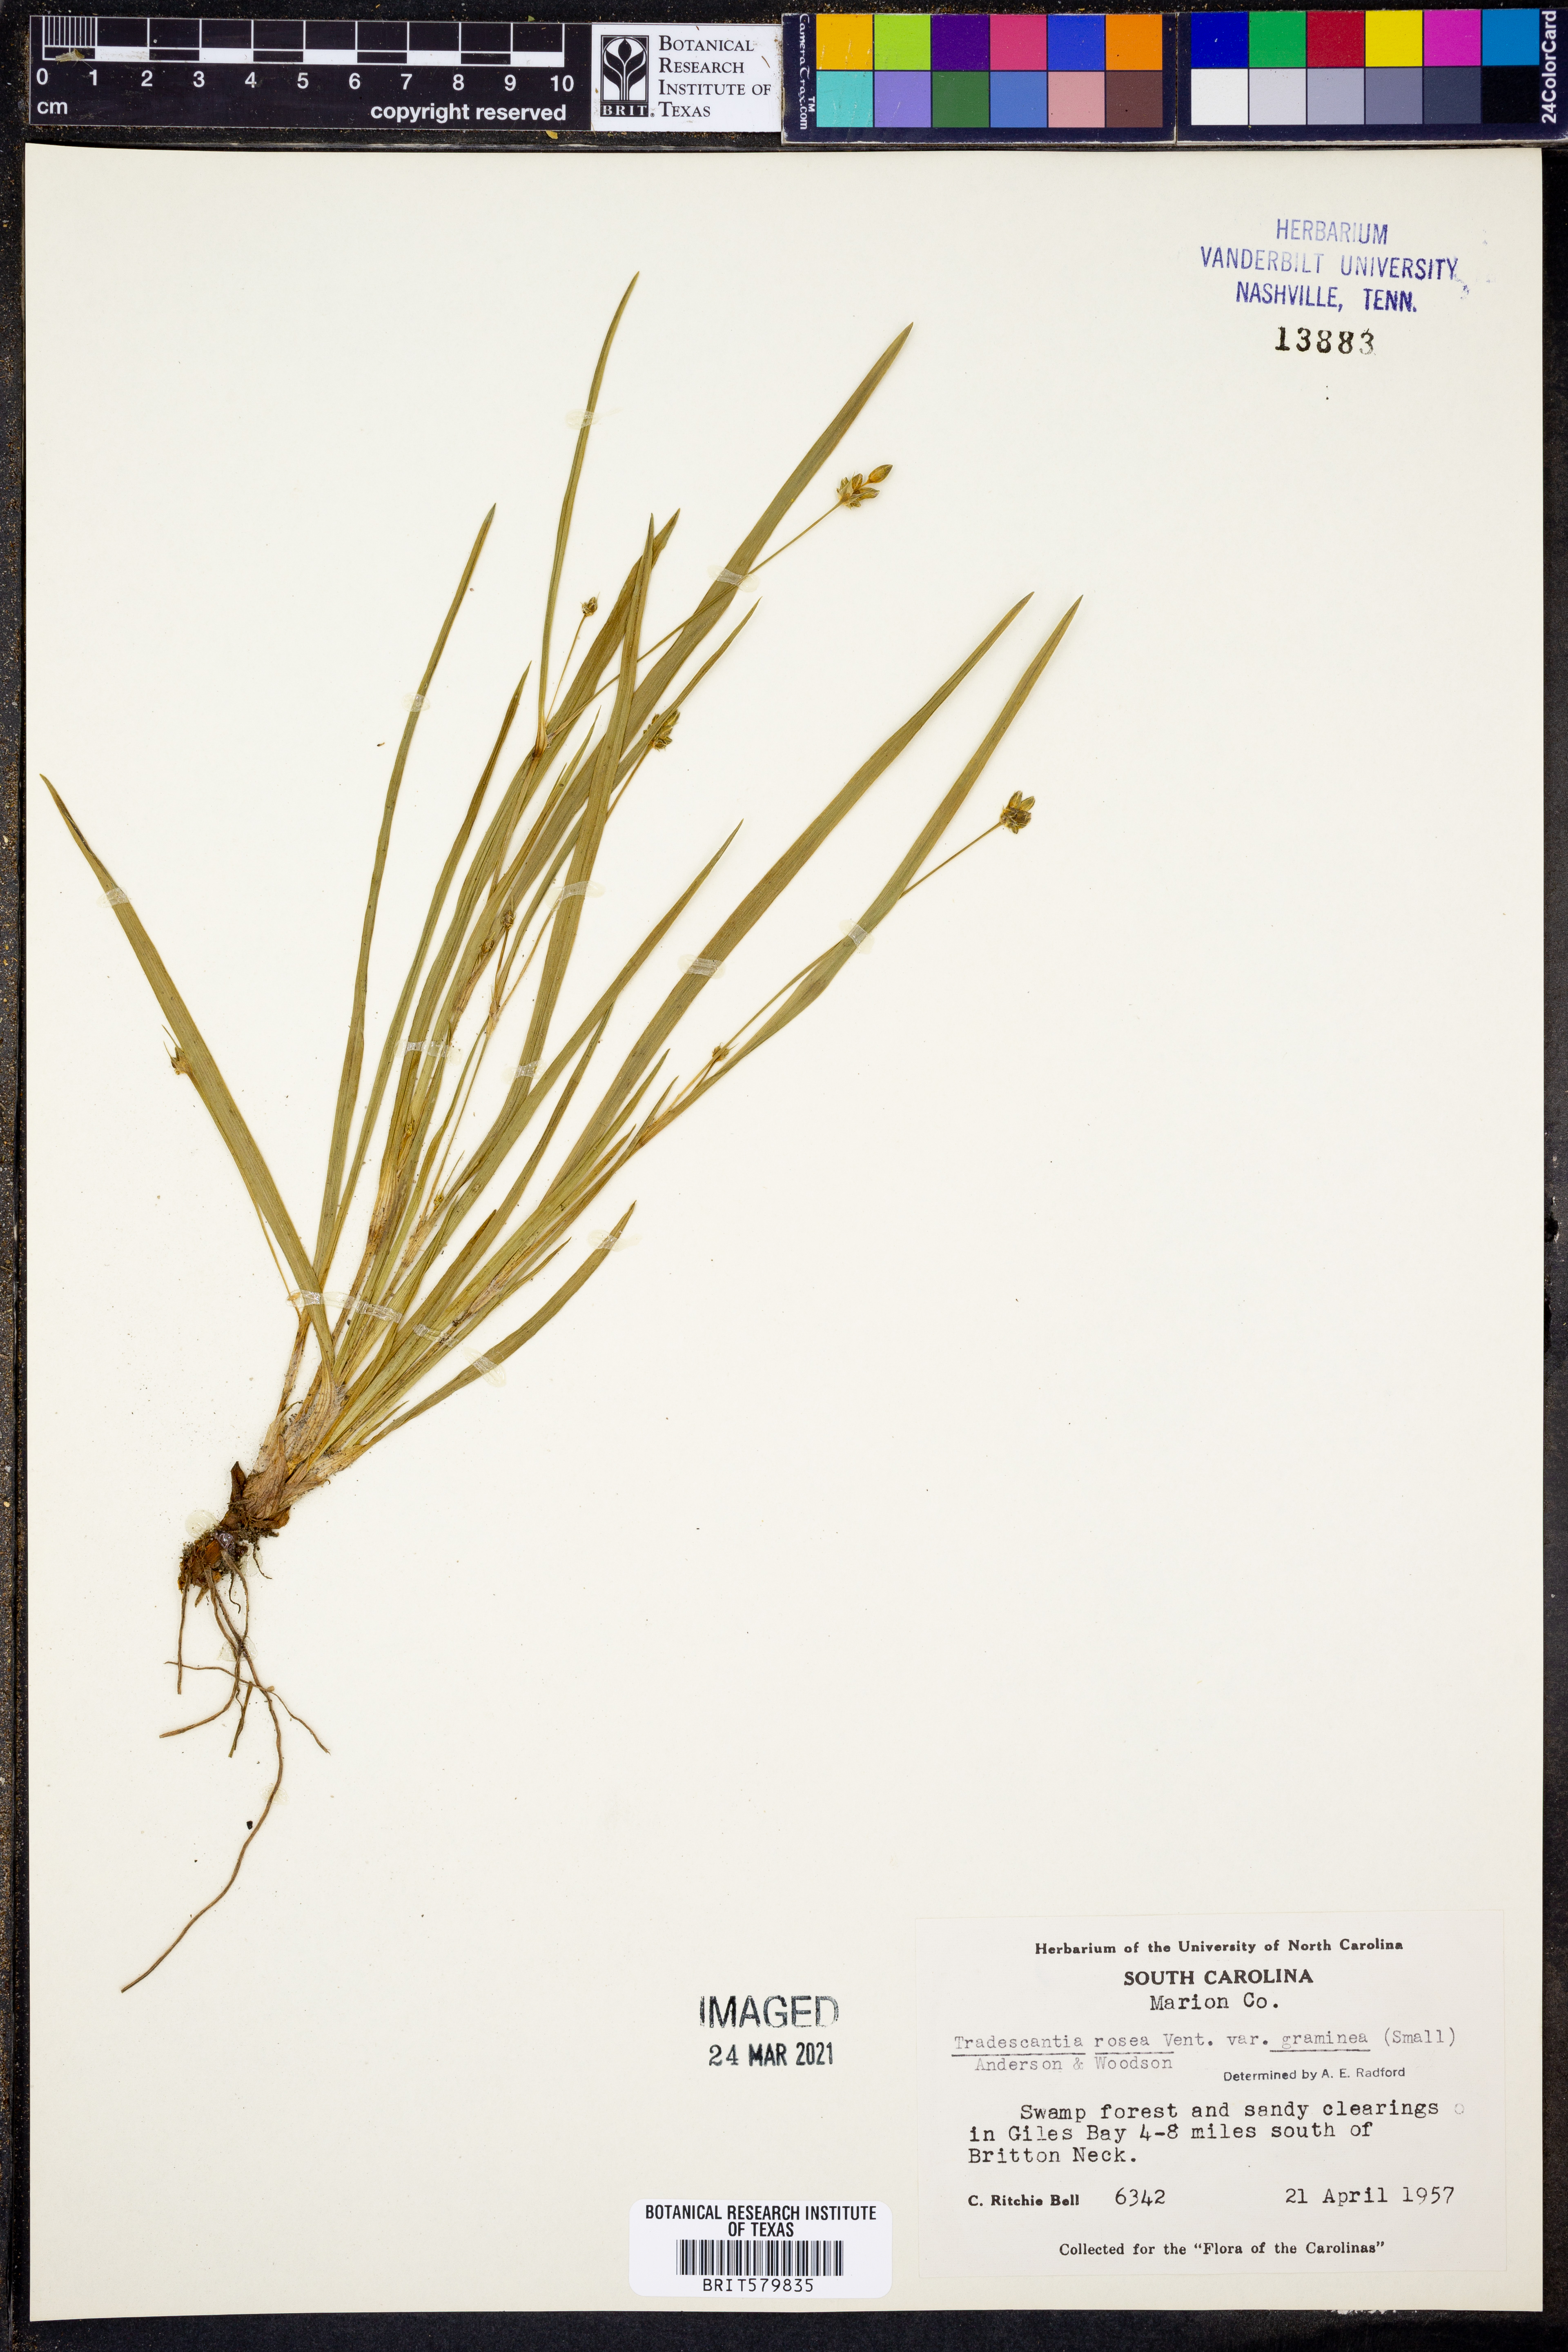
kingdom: Plantae
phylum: Tracheophyta
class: Liliopsida
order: Commelinales
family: Commelinaceae
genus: Callisia
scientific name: Callisia graminea
